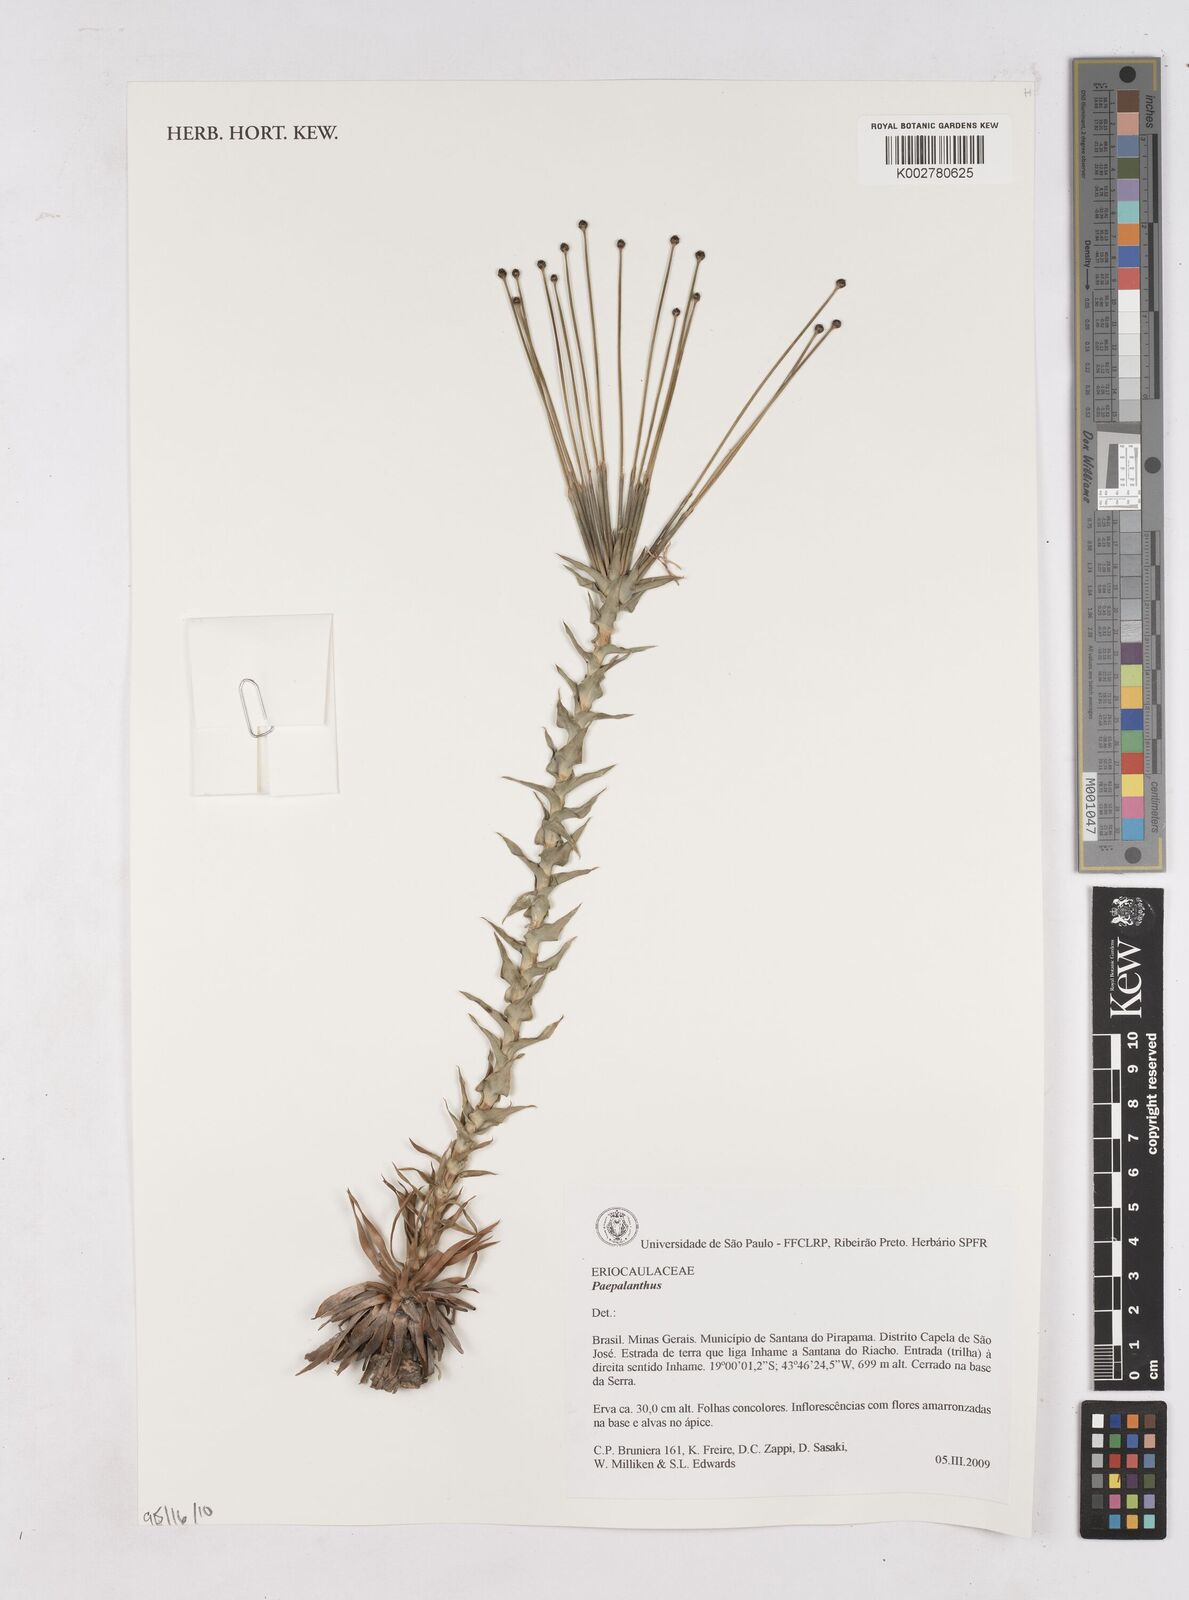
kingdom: Plantae
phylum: Tracheophyta
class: Liliopsida
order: Poales
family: Eriocaulaceae
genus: Paepalanthus
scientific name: Paepalanthus
